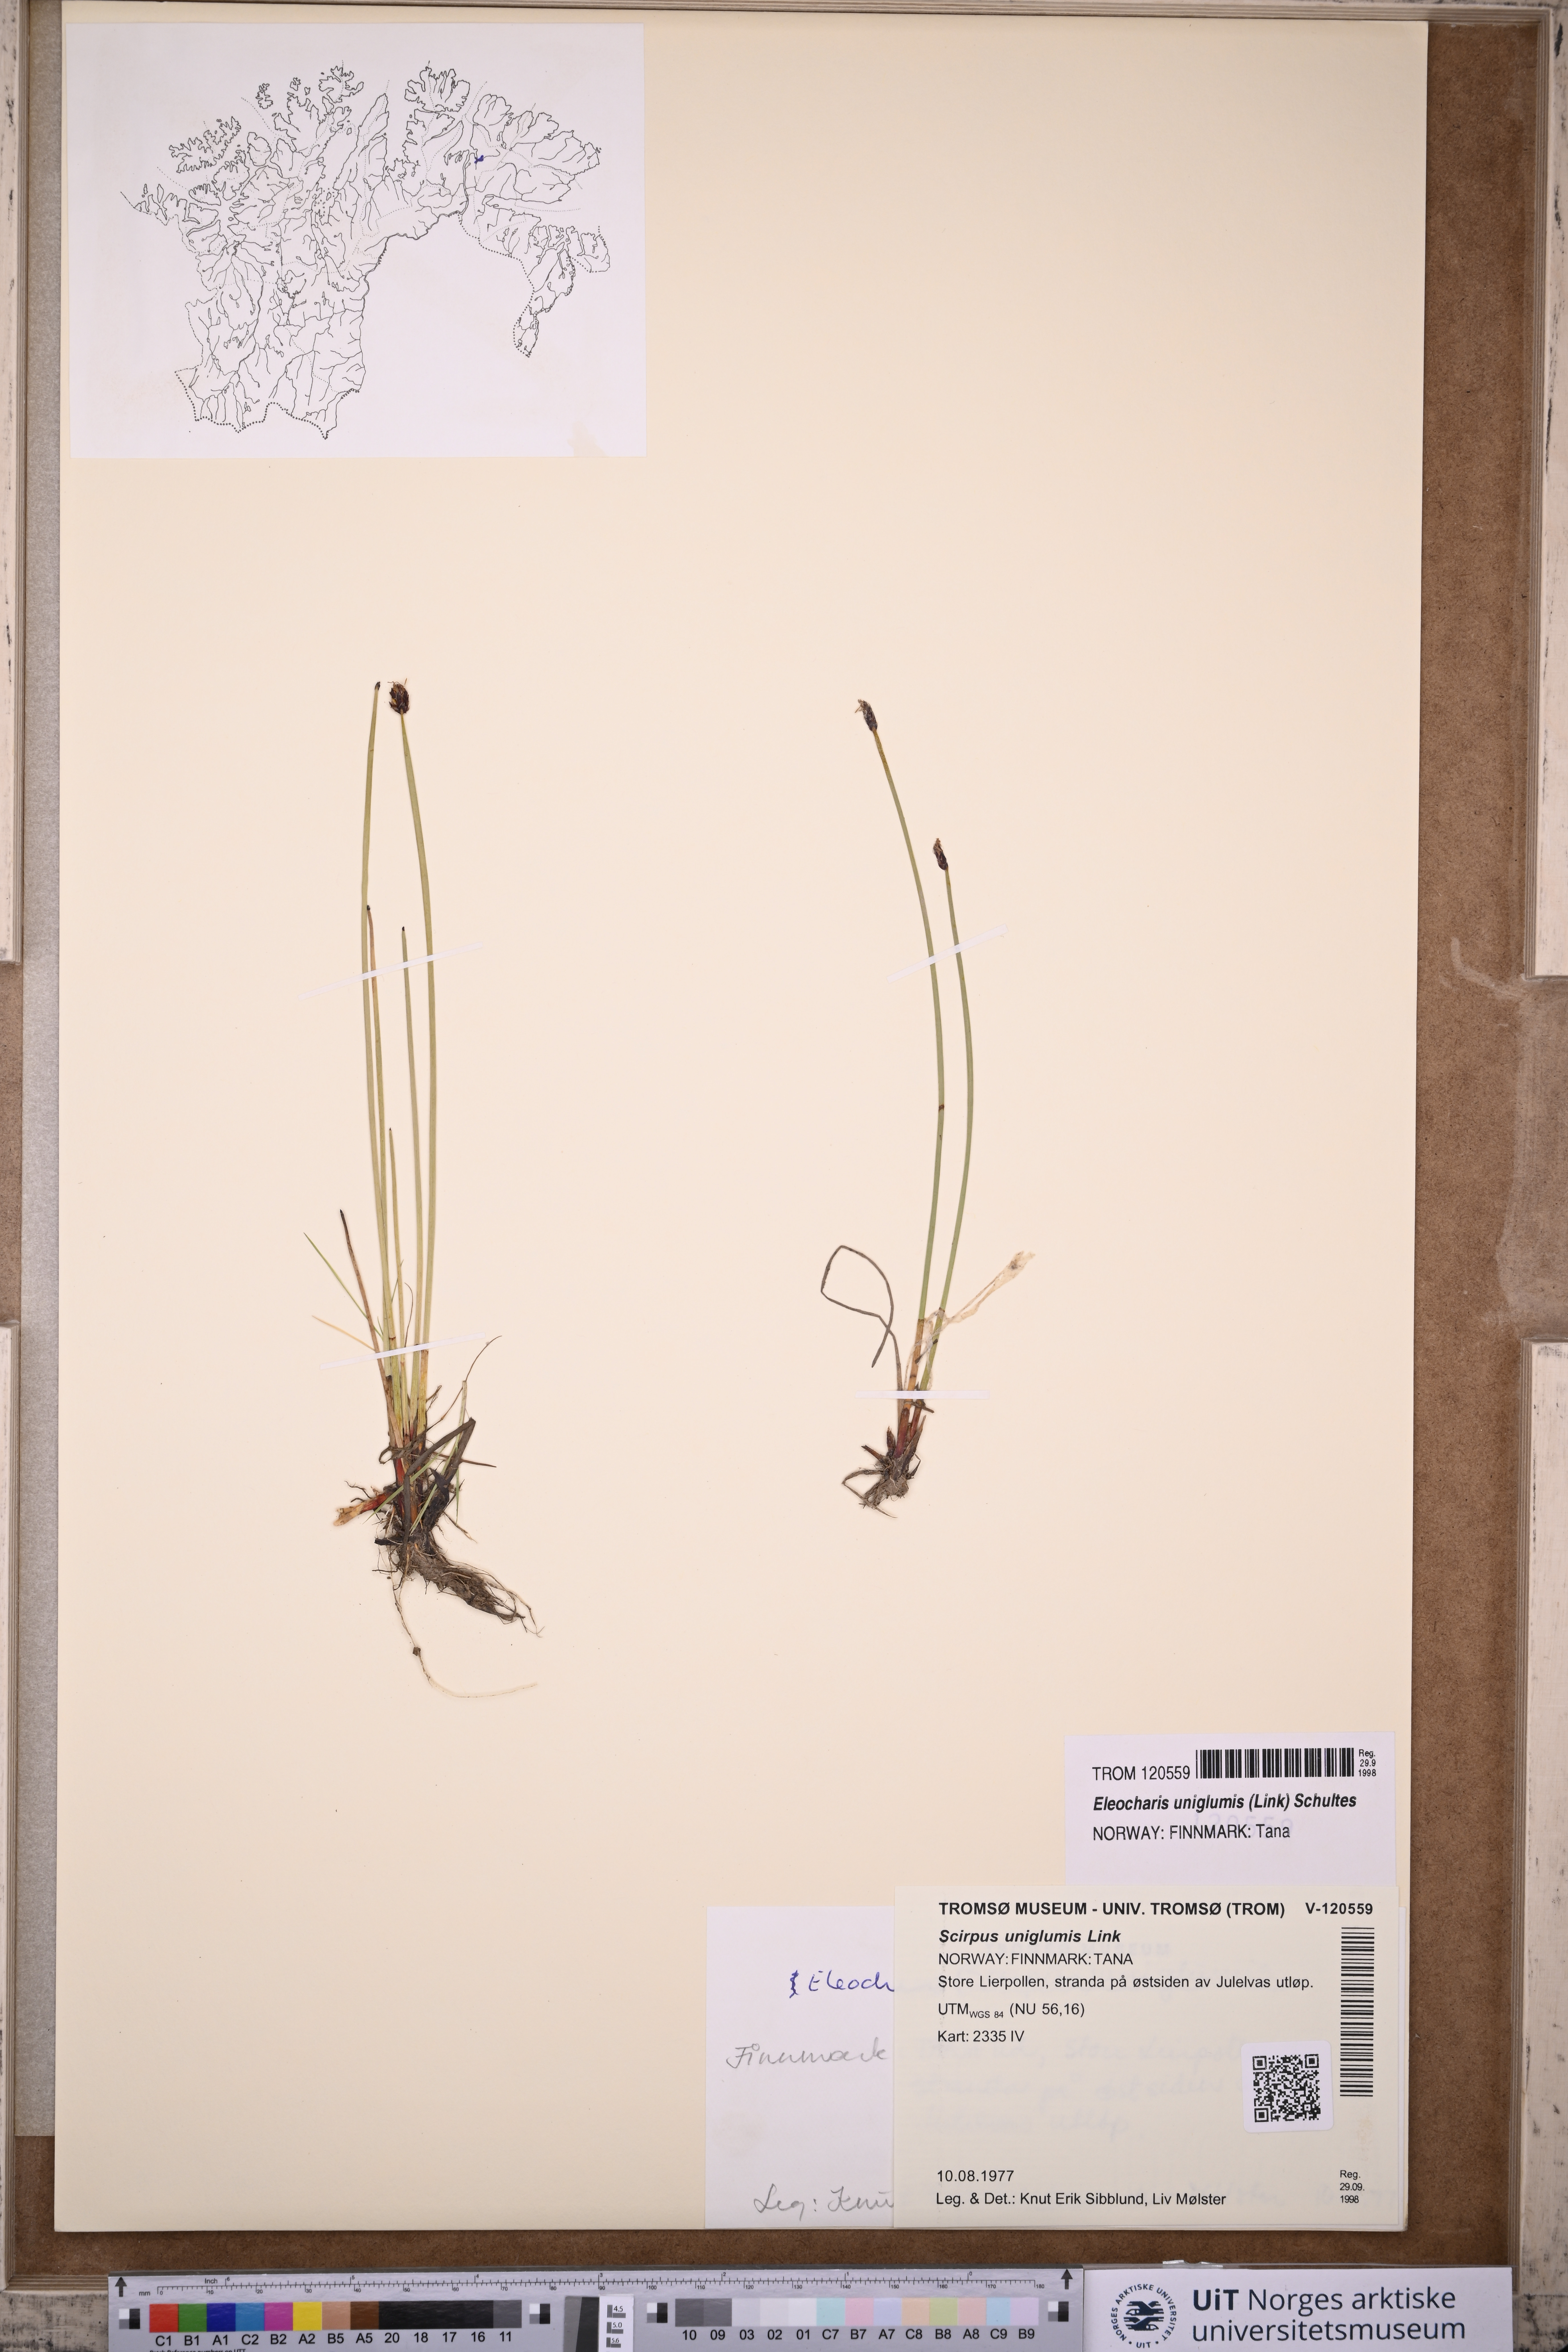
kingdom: Plantae
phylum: Tracheophyta
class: Liliopsida
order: Poales
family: Cyperaceae
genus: Eleocharis
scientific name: Eleocharis uniglumis
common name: Slender spike-rush
